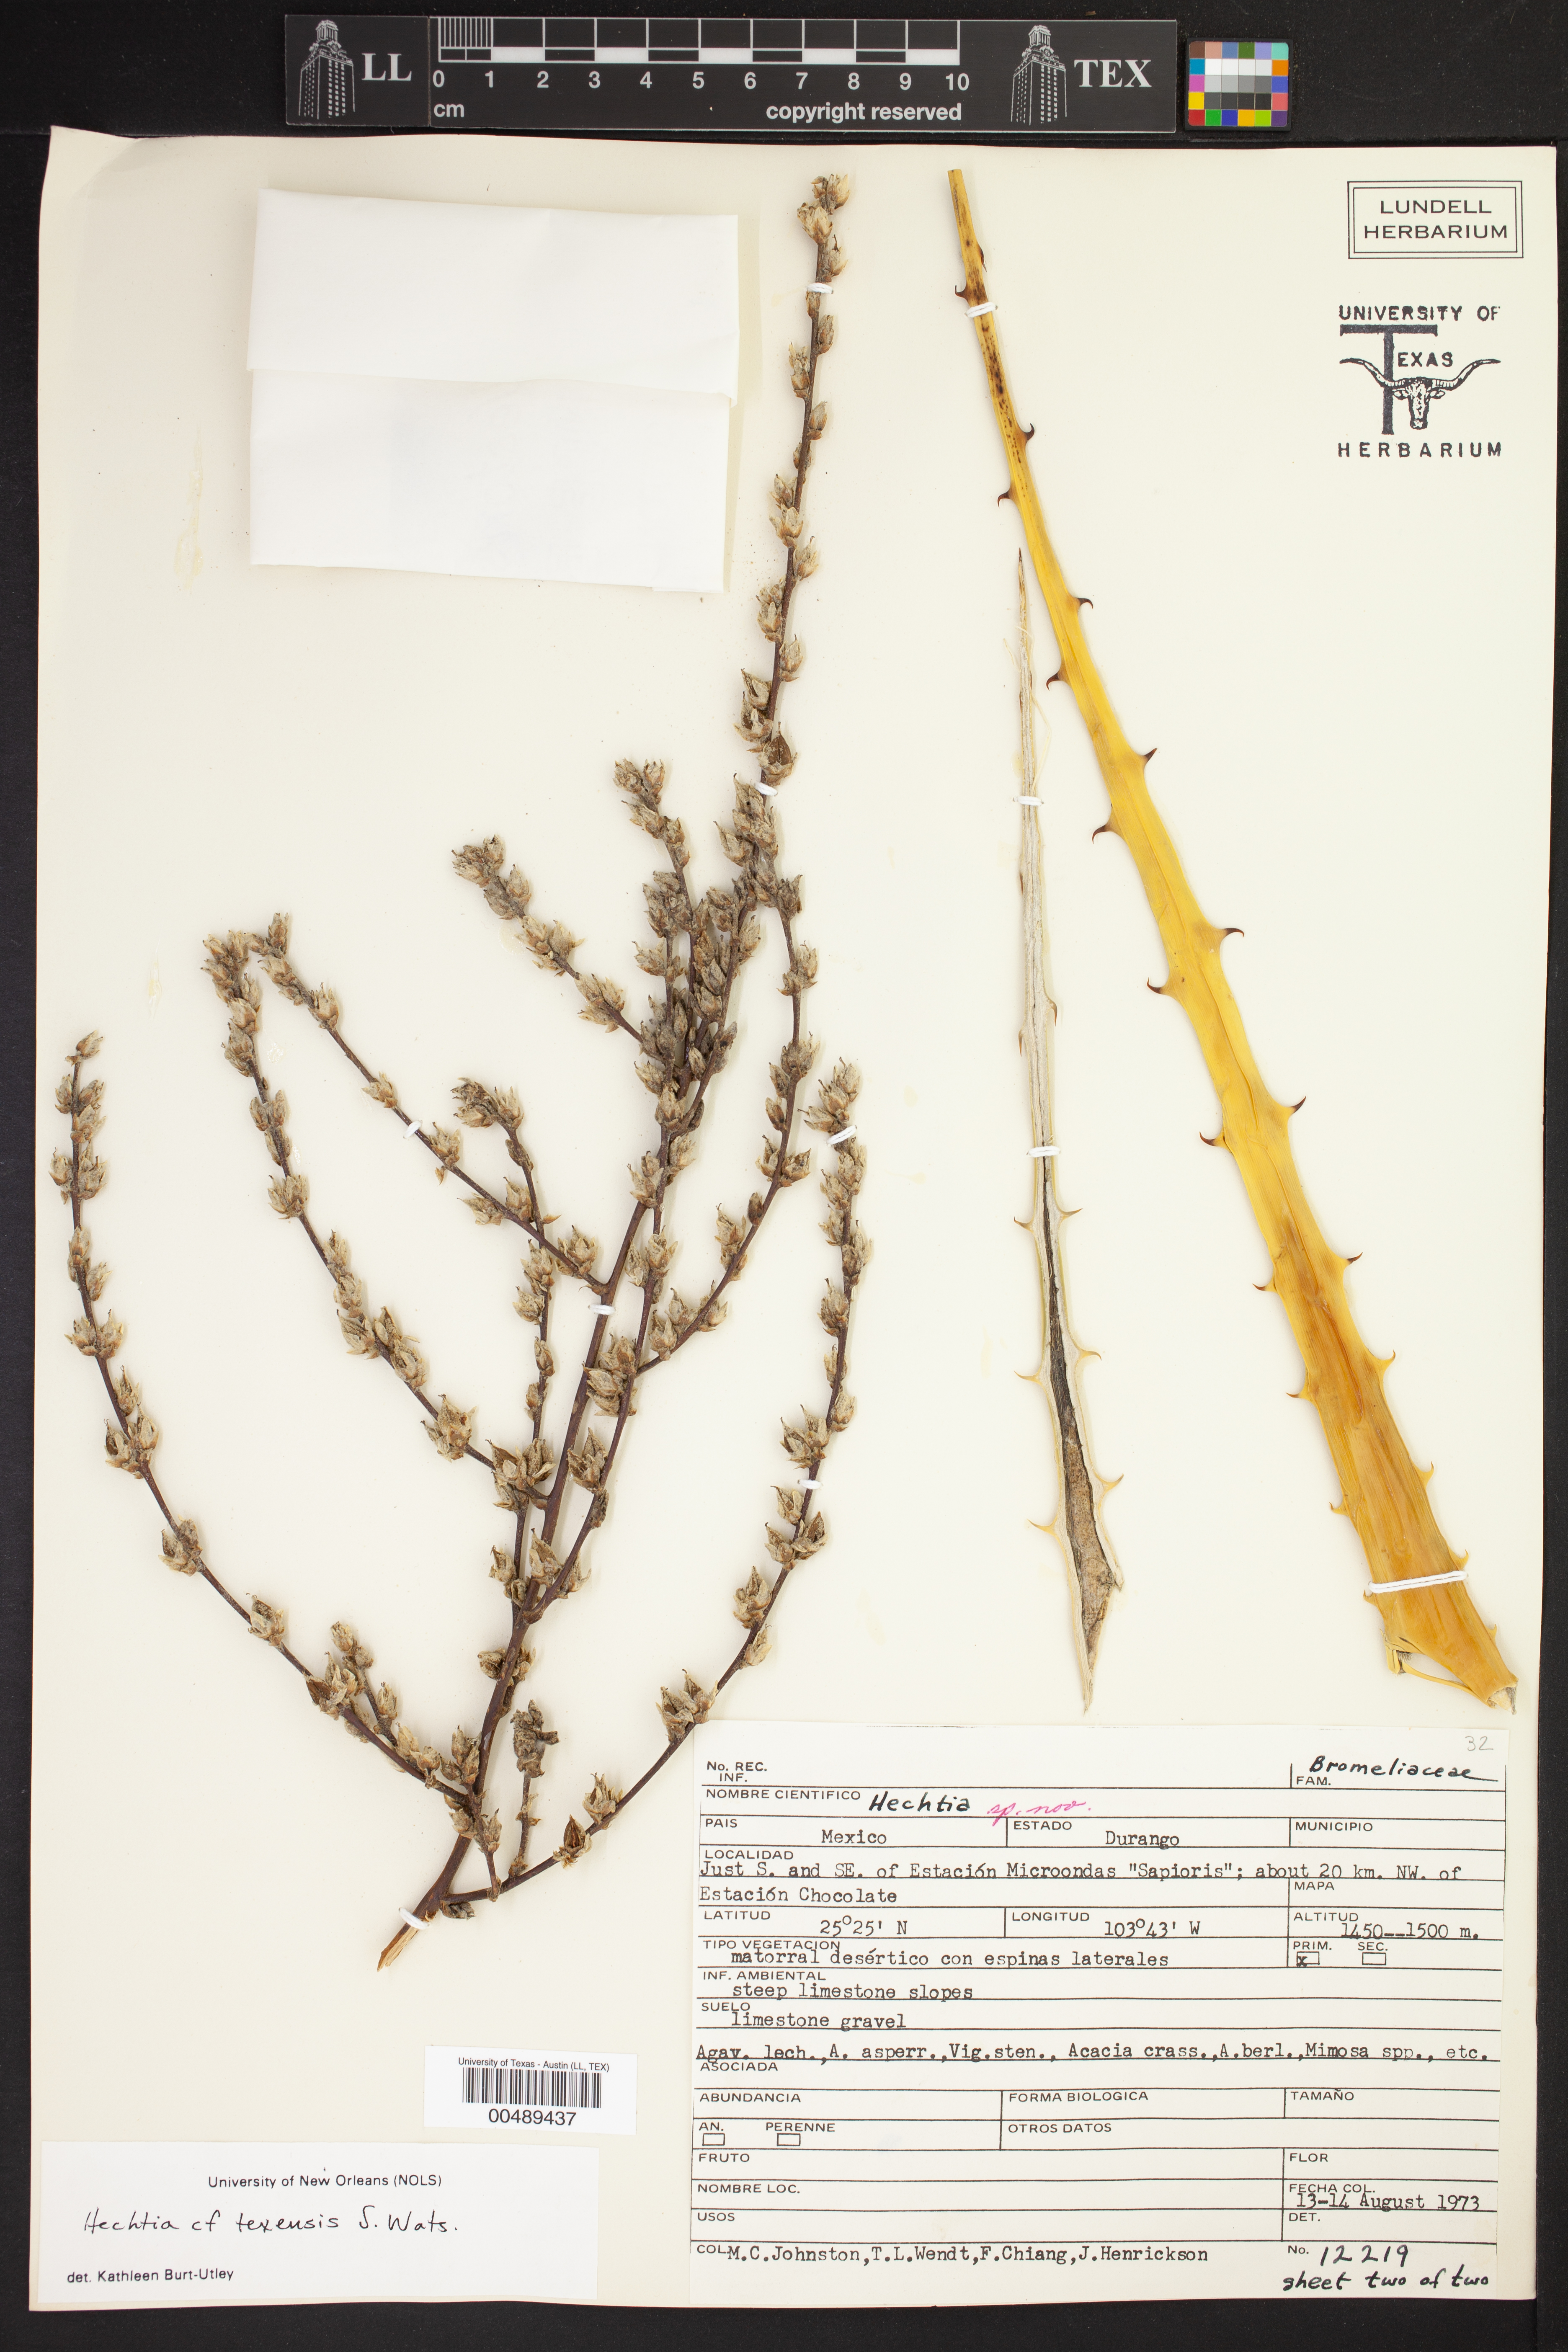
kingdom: Plantae
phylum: Tracheophyta
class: Liliopsida
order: Poales
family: Bromeliaceae
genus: Hechtia
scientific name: Hechtia texensis
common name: False agave
